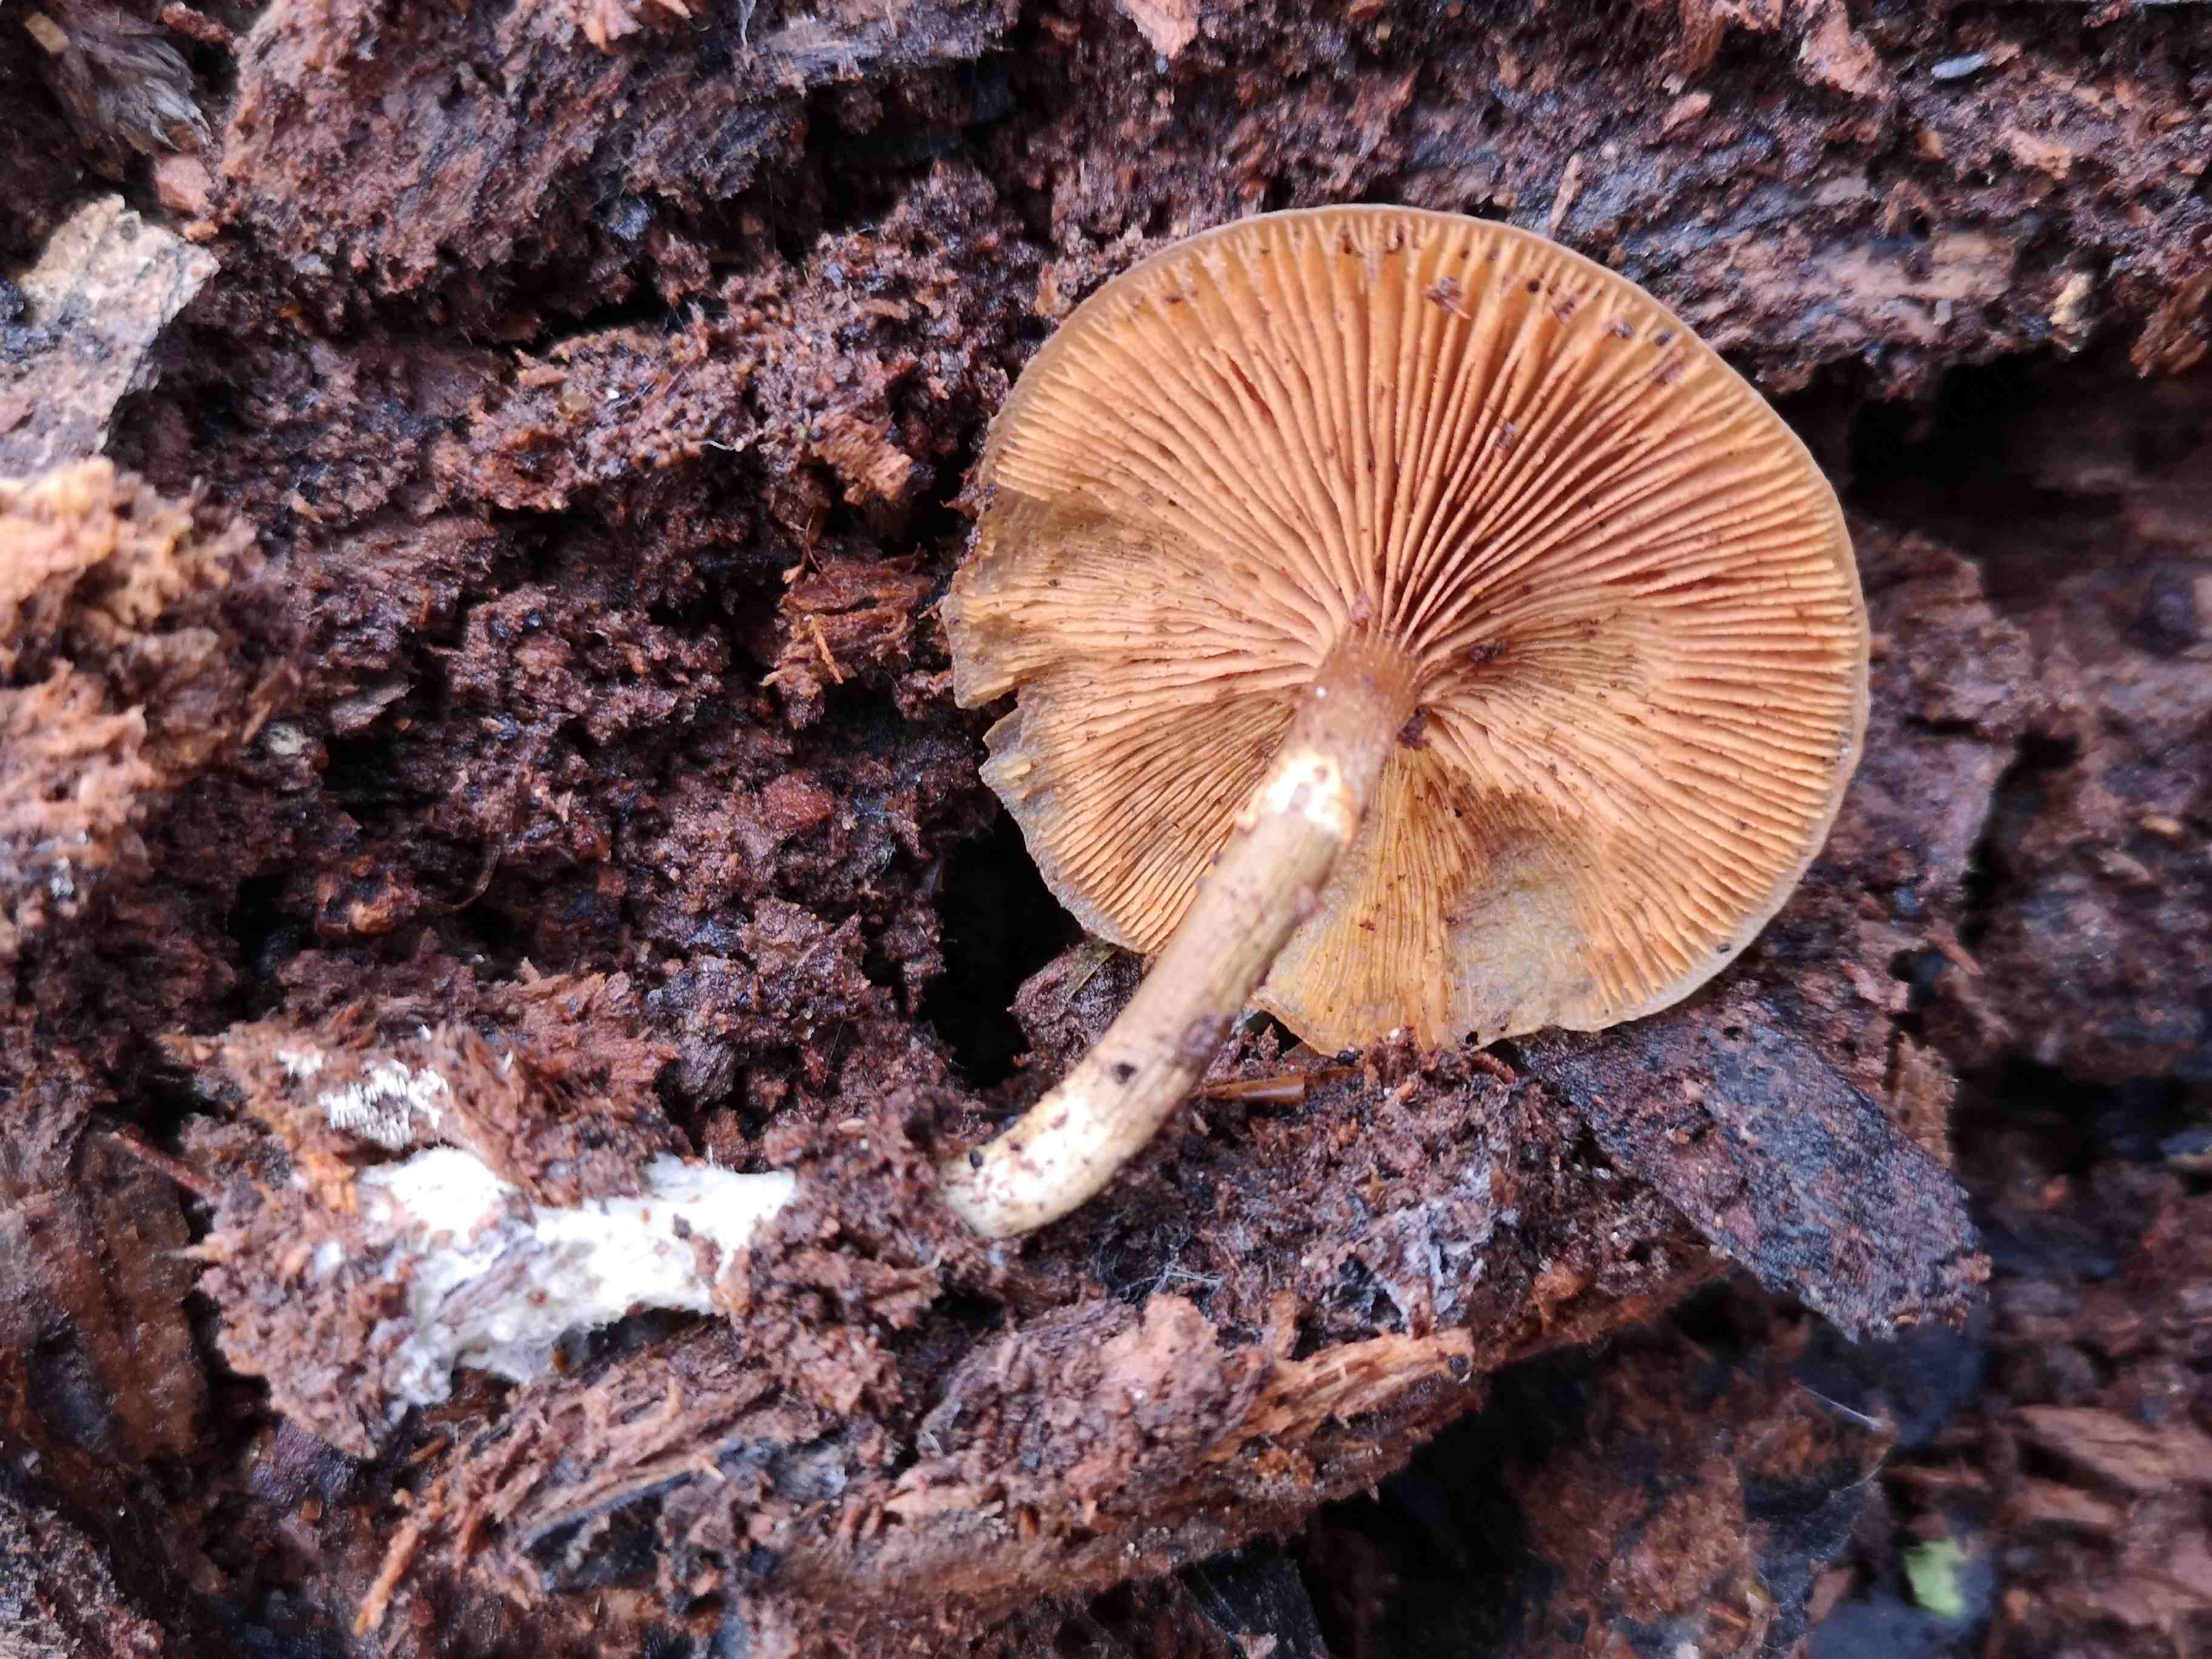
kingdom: Fungi
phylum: Basidiomycota
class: Agaricomycetes
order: Agaricales
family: Hymenogastraceae
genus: Galerina
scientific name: Galerina marginata
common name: randbæltet hjelmhat
